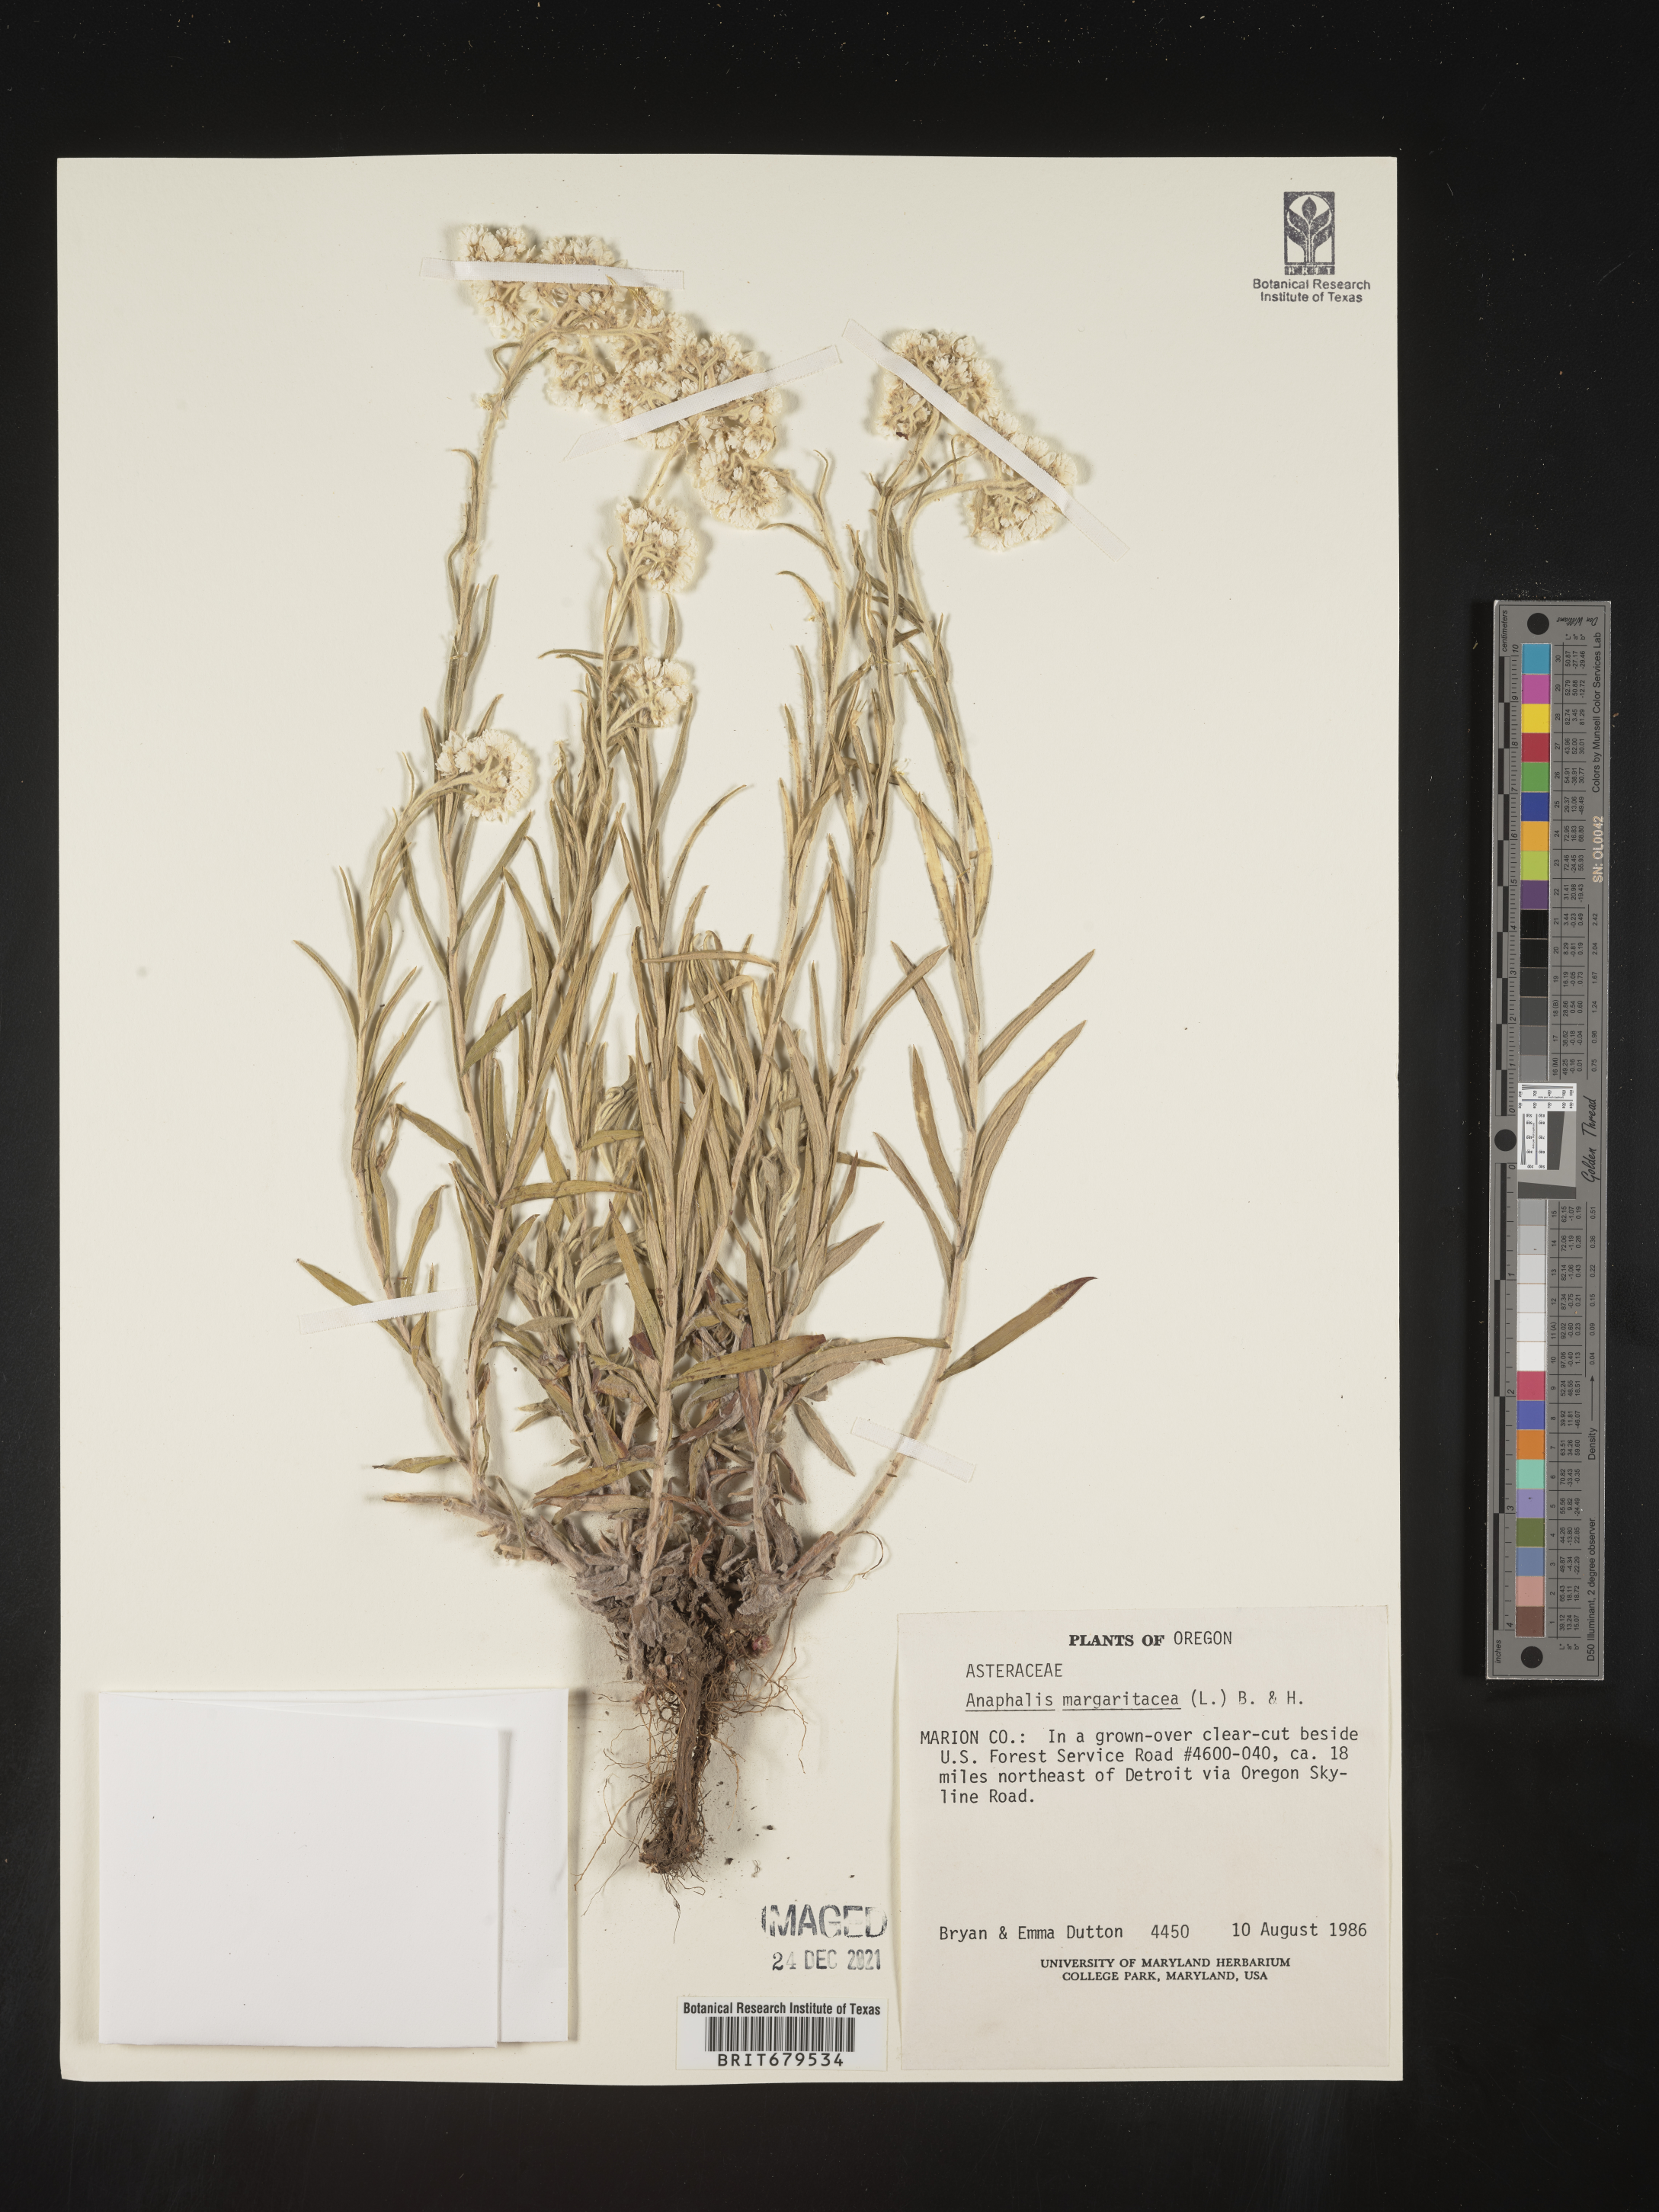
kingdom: Plantae
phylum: Tracheophyta
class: Magnoliopsida
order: Asterales
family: Asteraceae
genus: Anaphalis
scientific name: Anaphalis margaritacea
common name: Pearly everlasting
